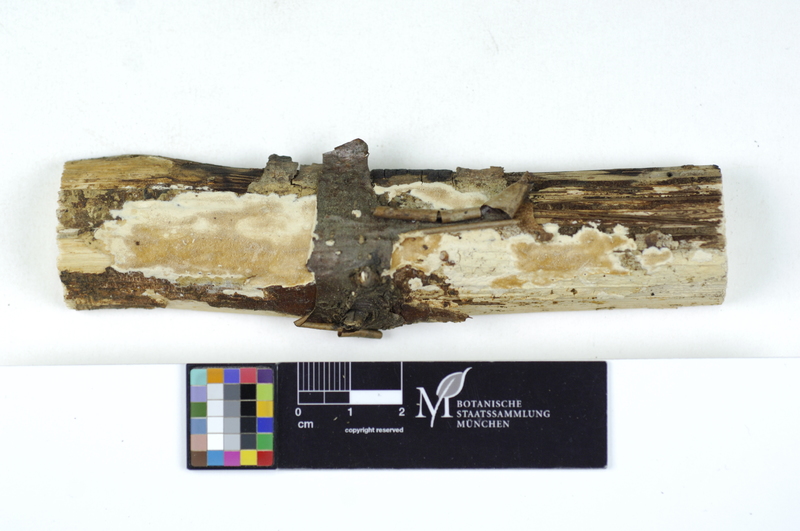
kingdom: Plantae
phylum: Tracheophyta
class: Magnoliopsida
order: Fagales
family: Betulaceae
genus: Carpinus
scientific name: Carpinus
